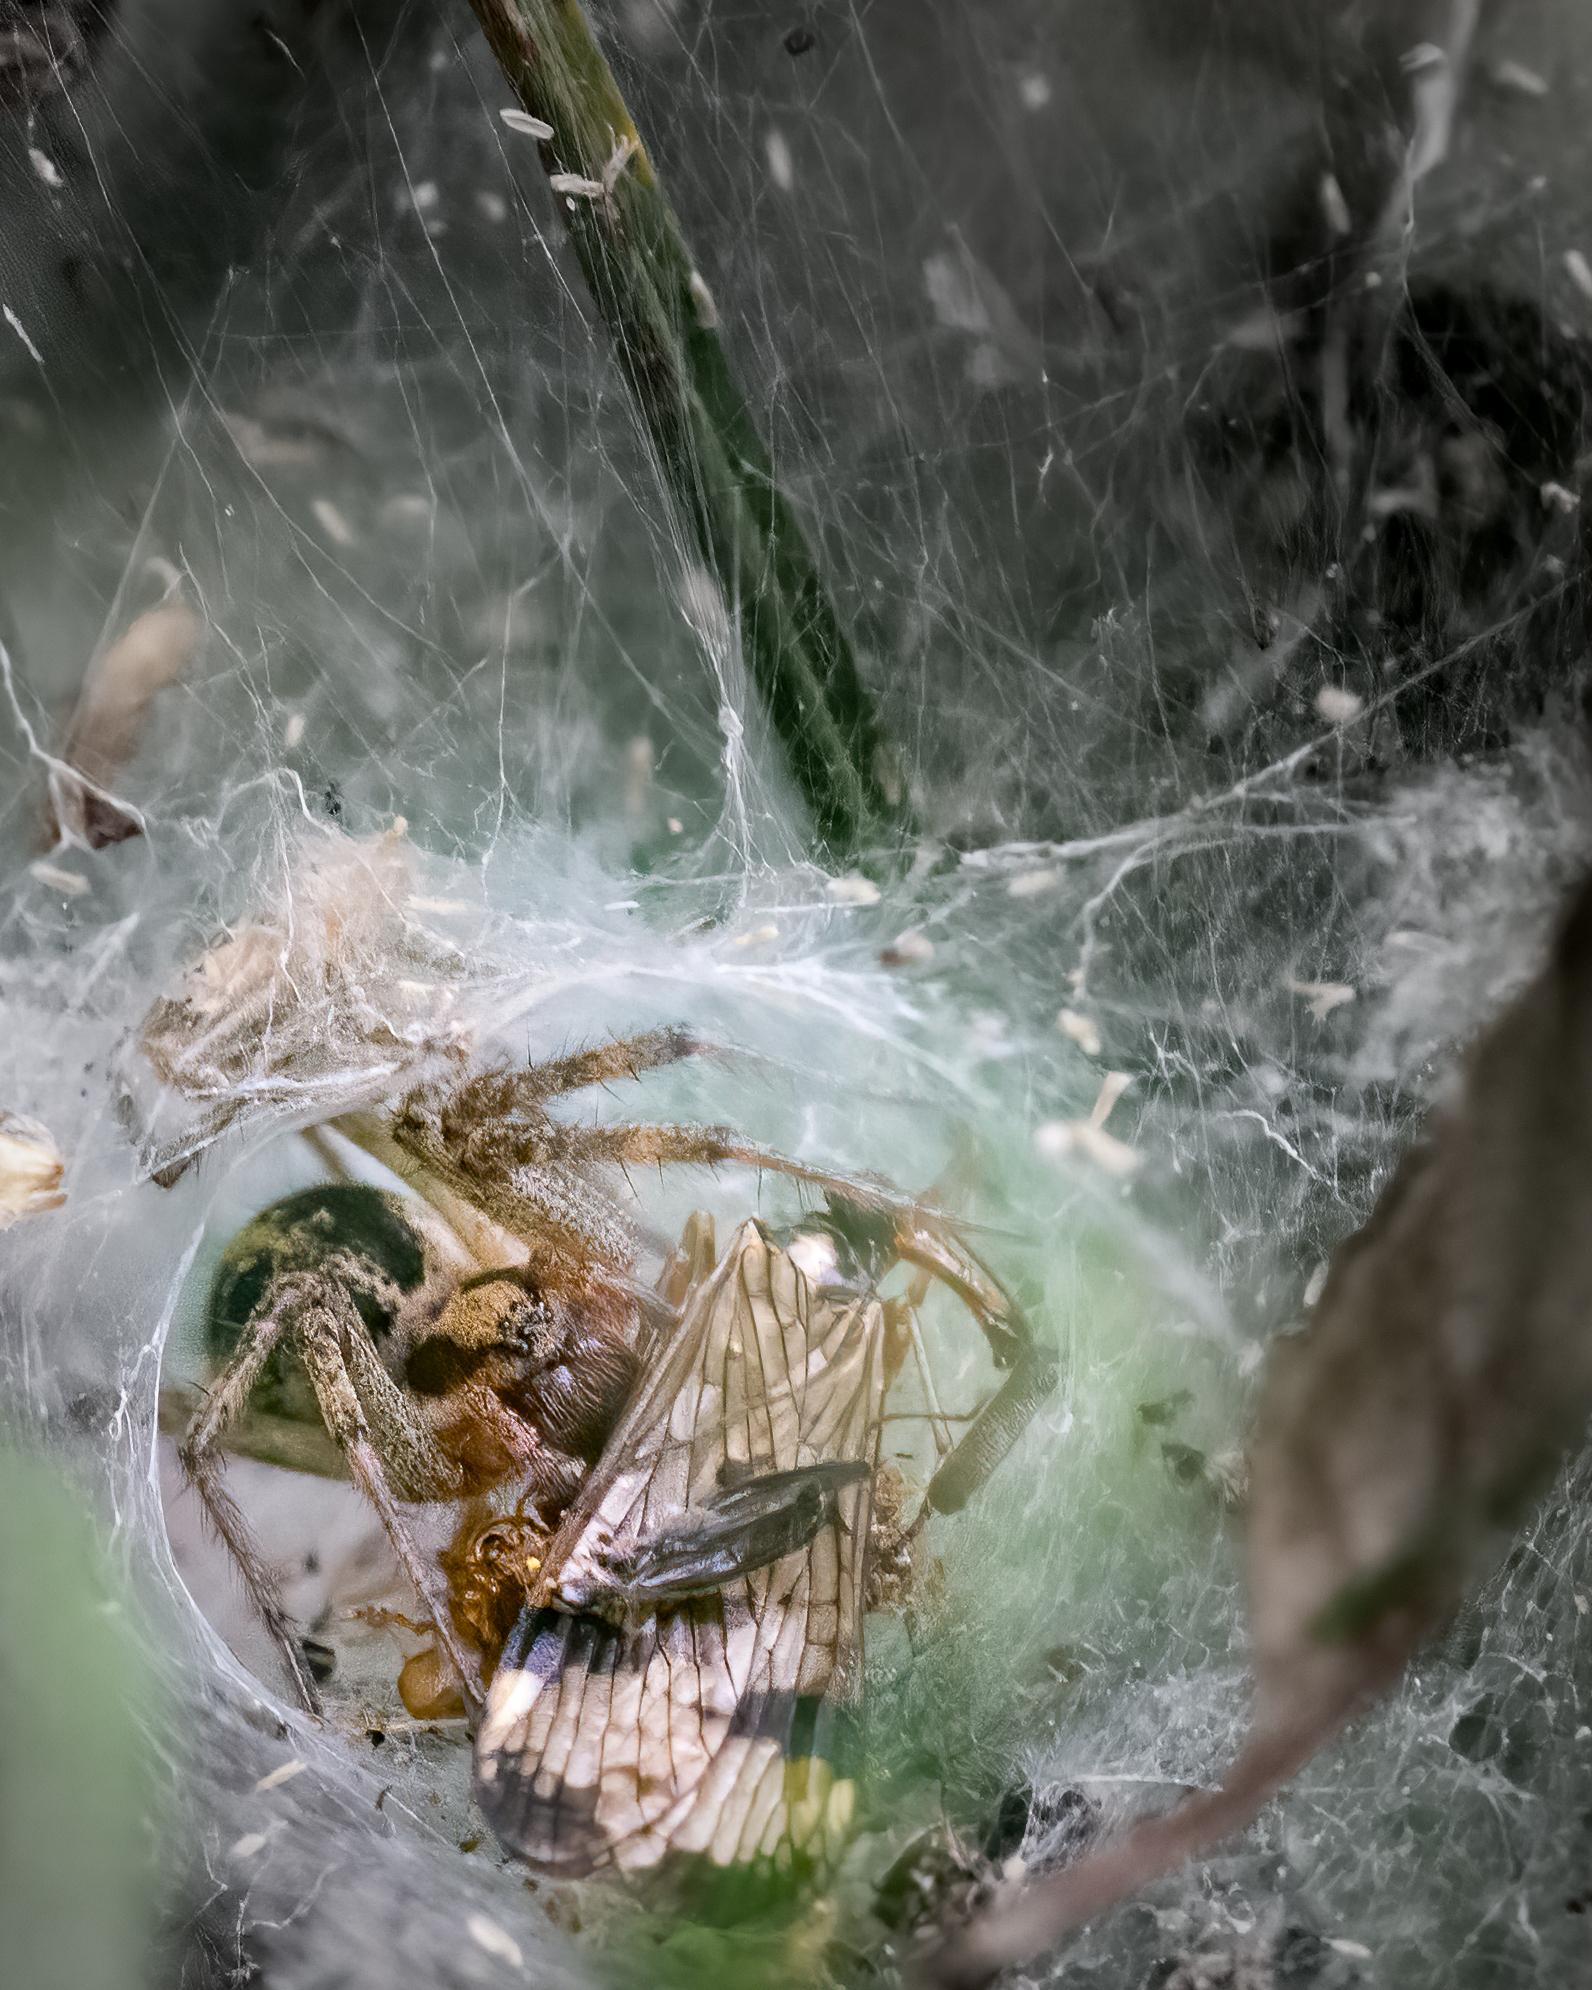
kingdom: Animalia
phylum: Arthropoda
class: Arachnida
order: Araneae
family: Agelenidae
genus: Agelena
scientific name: Agelena labyrinthica
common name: Labyrintedderkop
